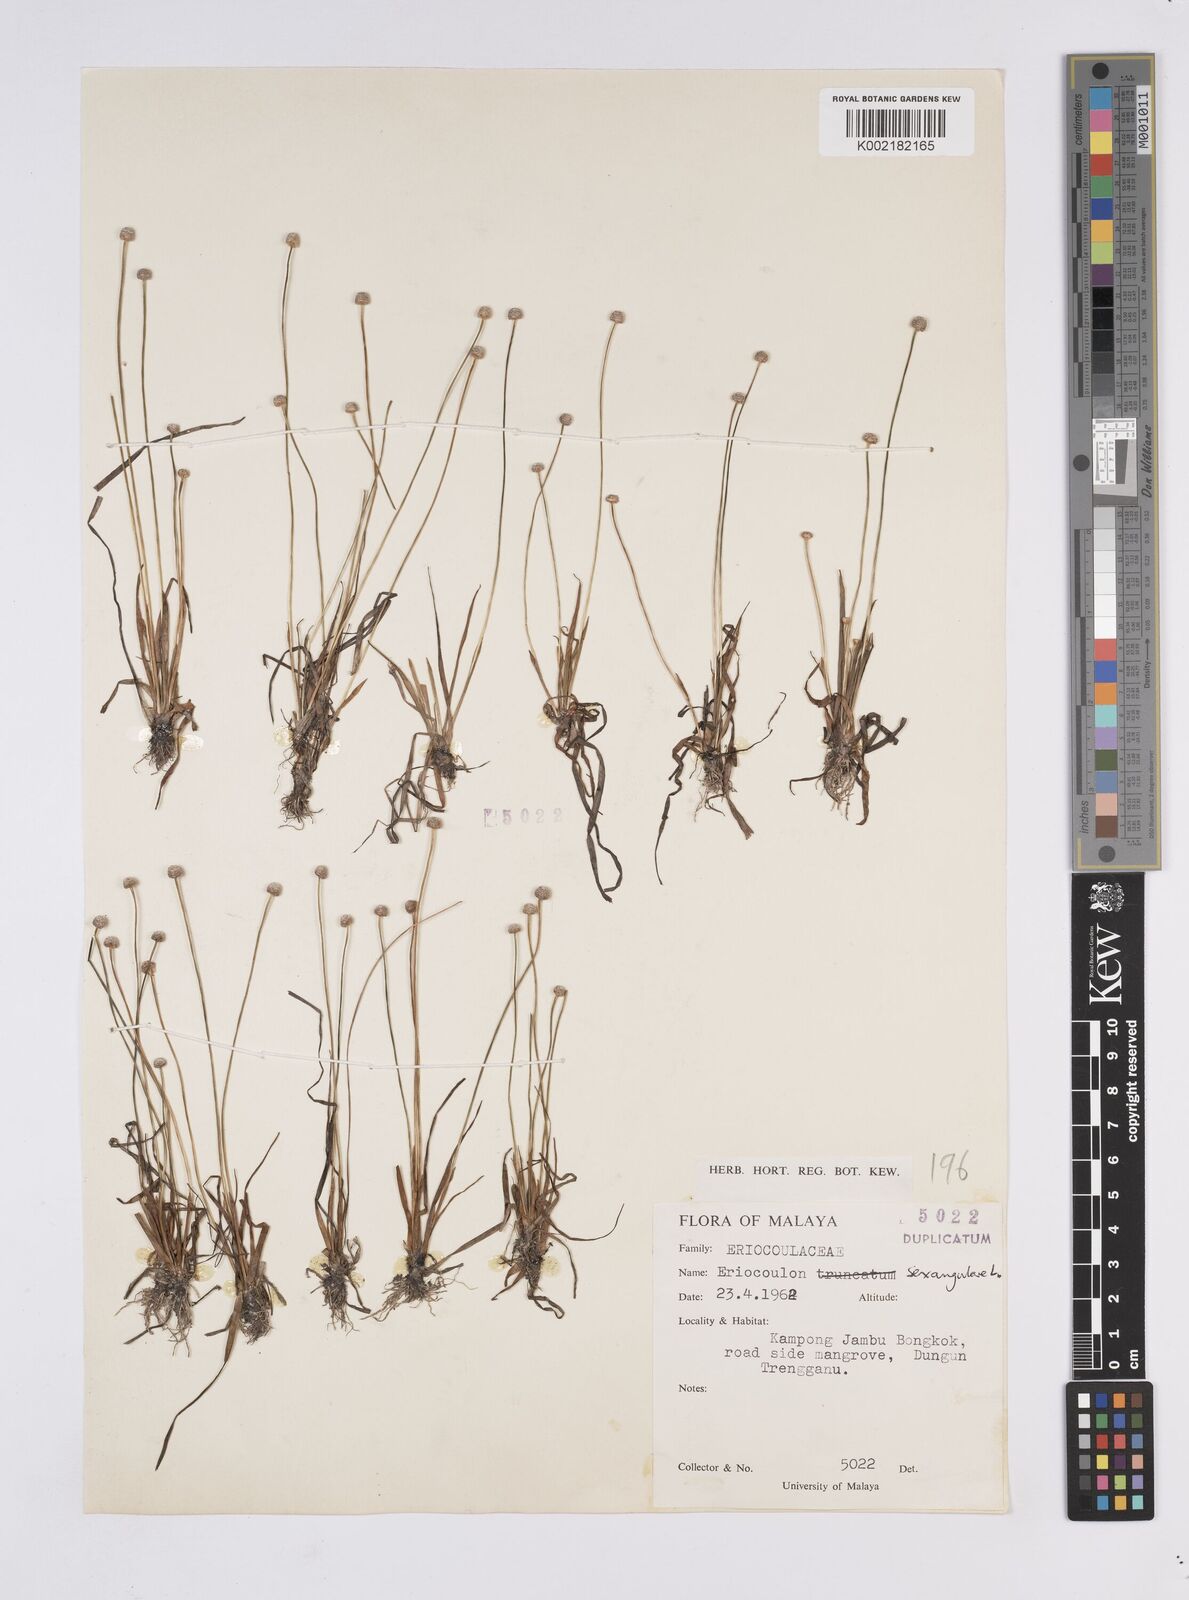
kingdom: Plantae
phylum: Tracheophyta
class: Liliopsida
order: Poales
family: Eriocaulaceae
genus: Eriocaulon
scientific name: Eriocaulon sexangulare
